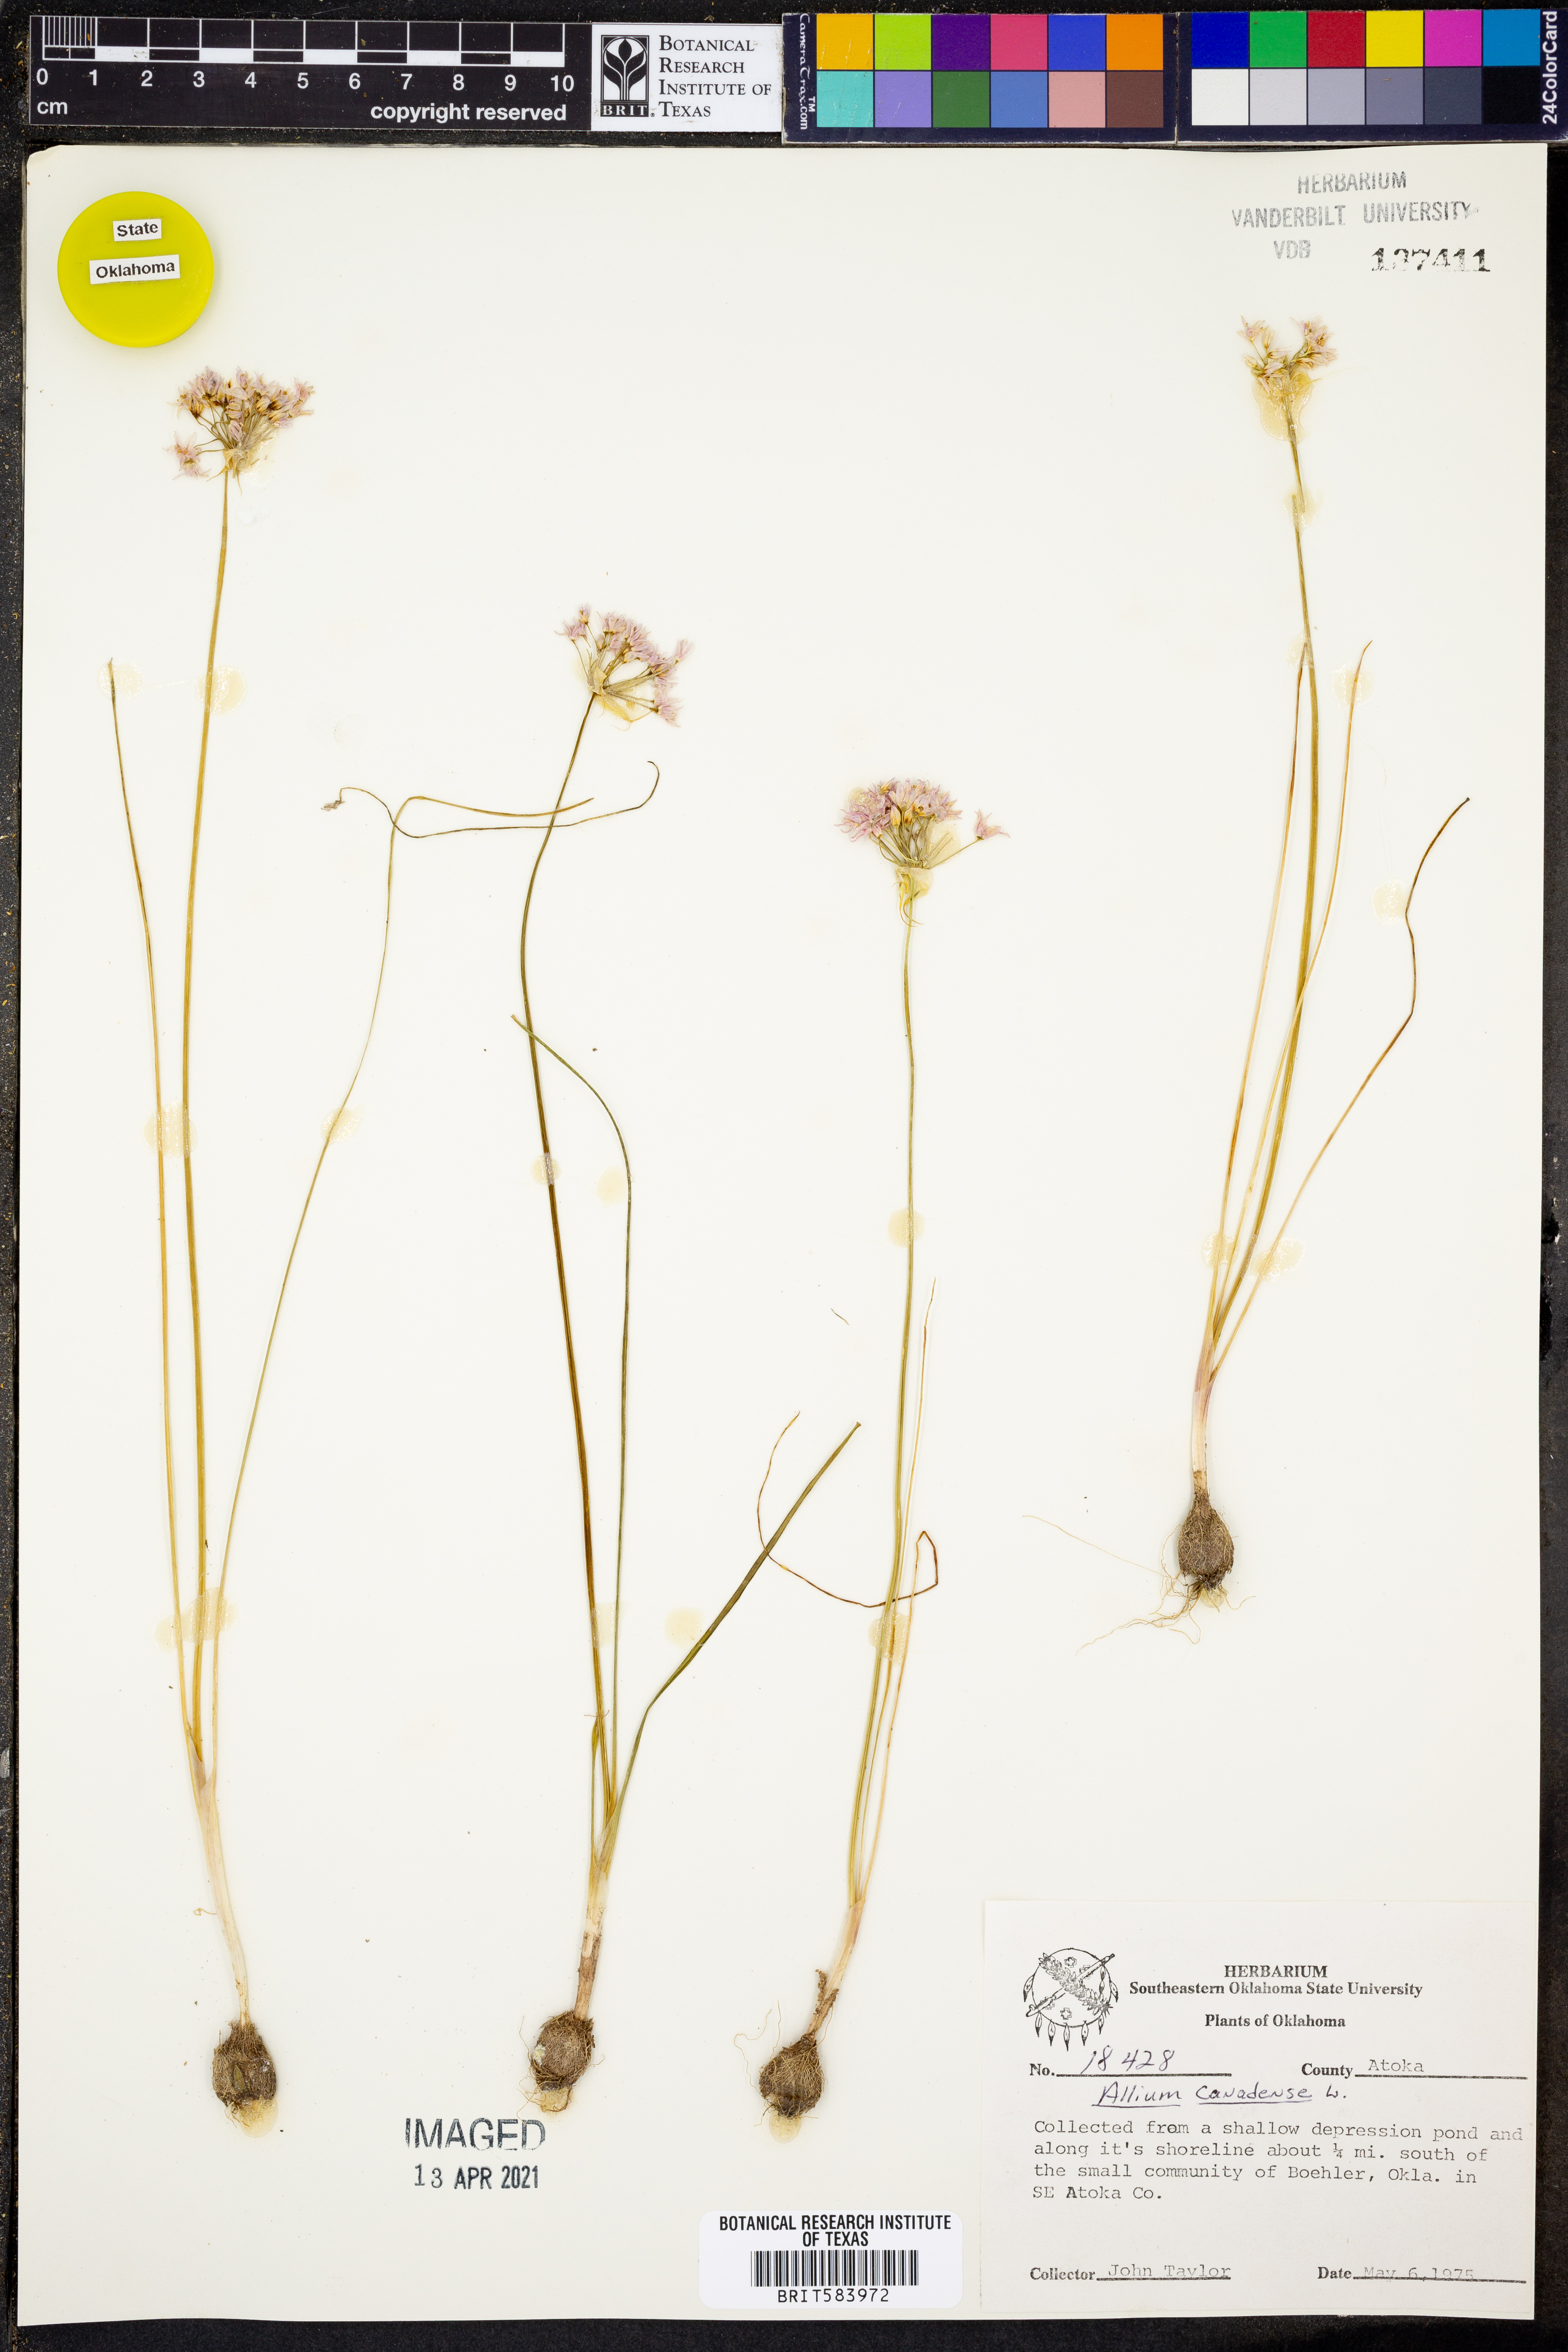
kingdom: Plantae
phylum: Tracheophyta
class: Liliopsida
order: Asparagales
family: Amaryllidaceae
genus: Allium
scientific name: Allium canadense
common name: Meadow garlic
